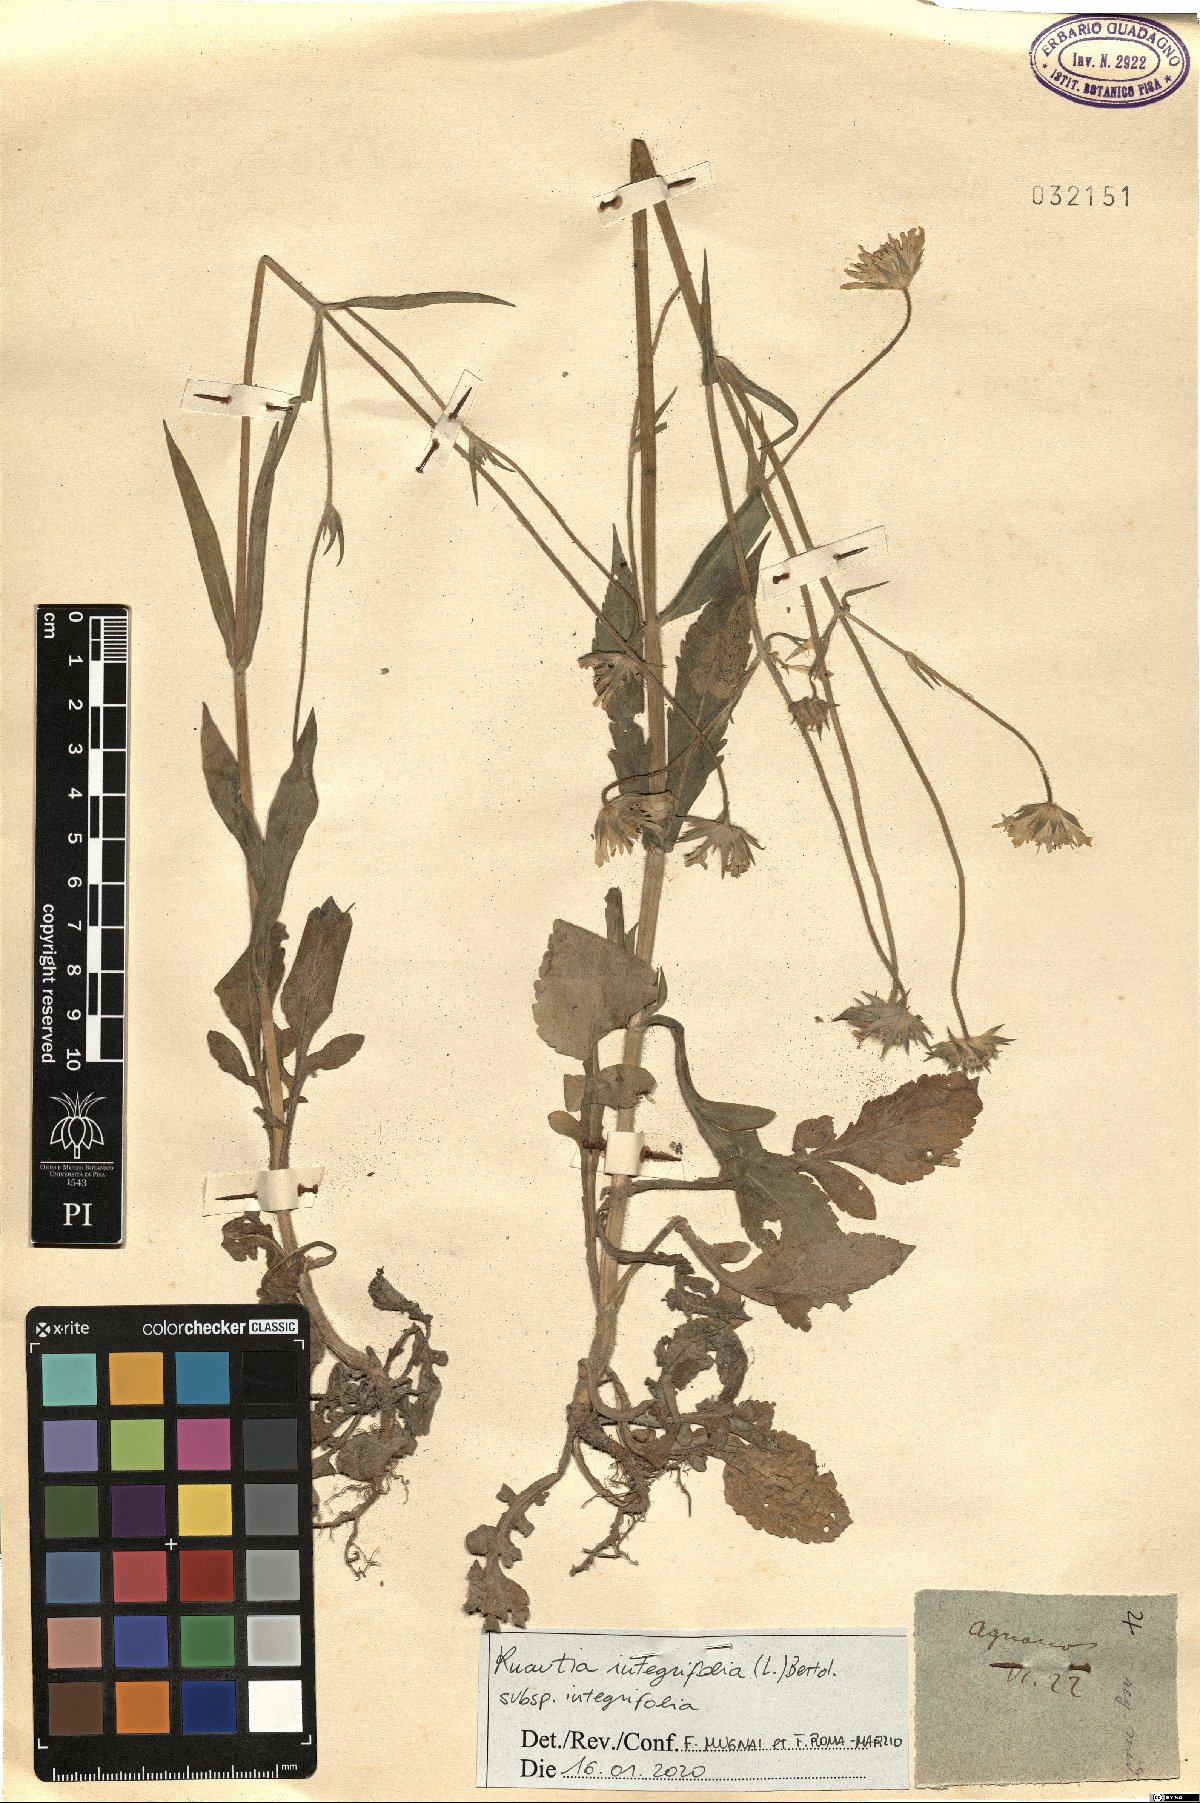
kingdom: Plantae
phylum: Tracheophyta
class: Magnoliopsida
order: Dipsacales
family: Caprifoliaceae
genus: Knautia
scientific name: Knautia integrifolia
